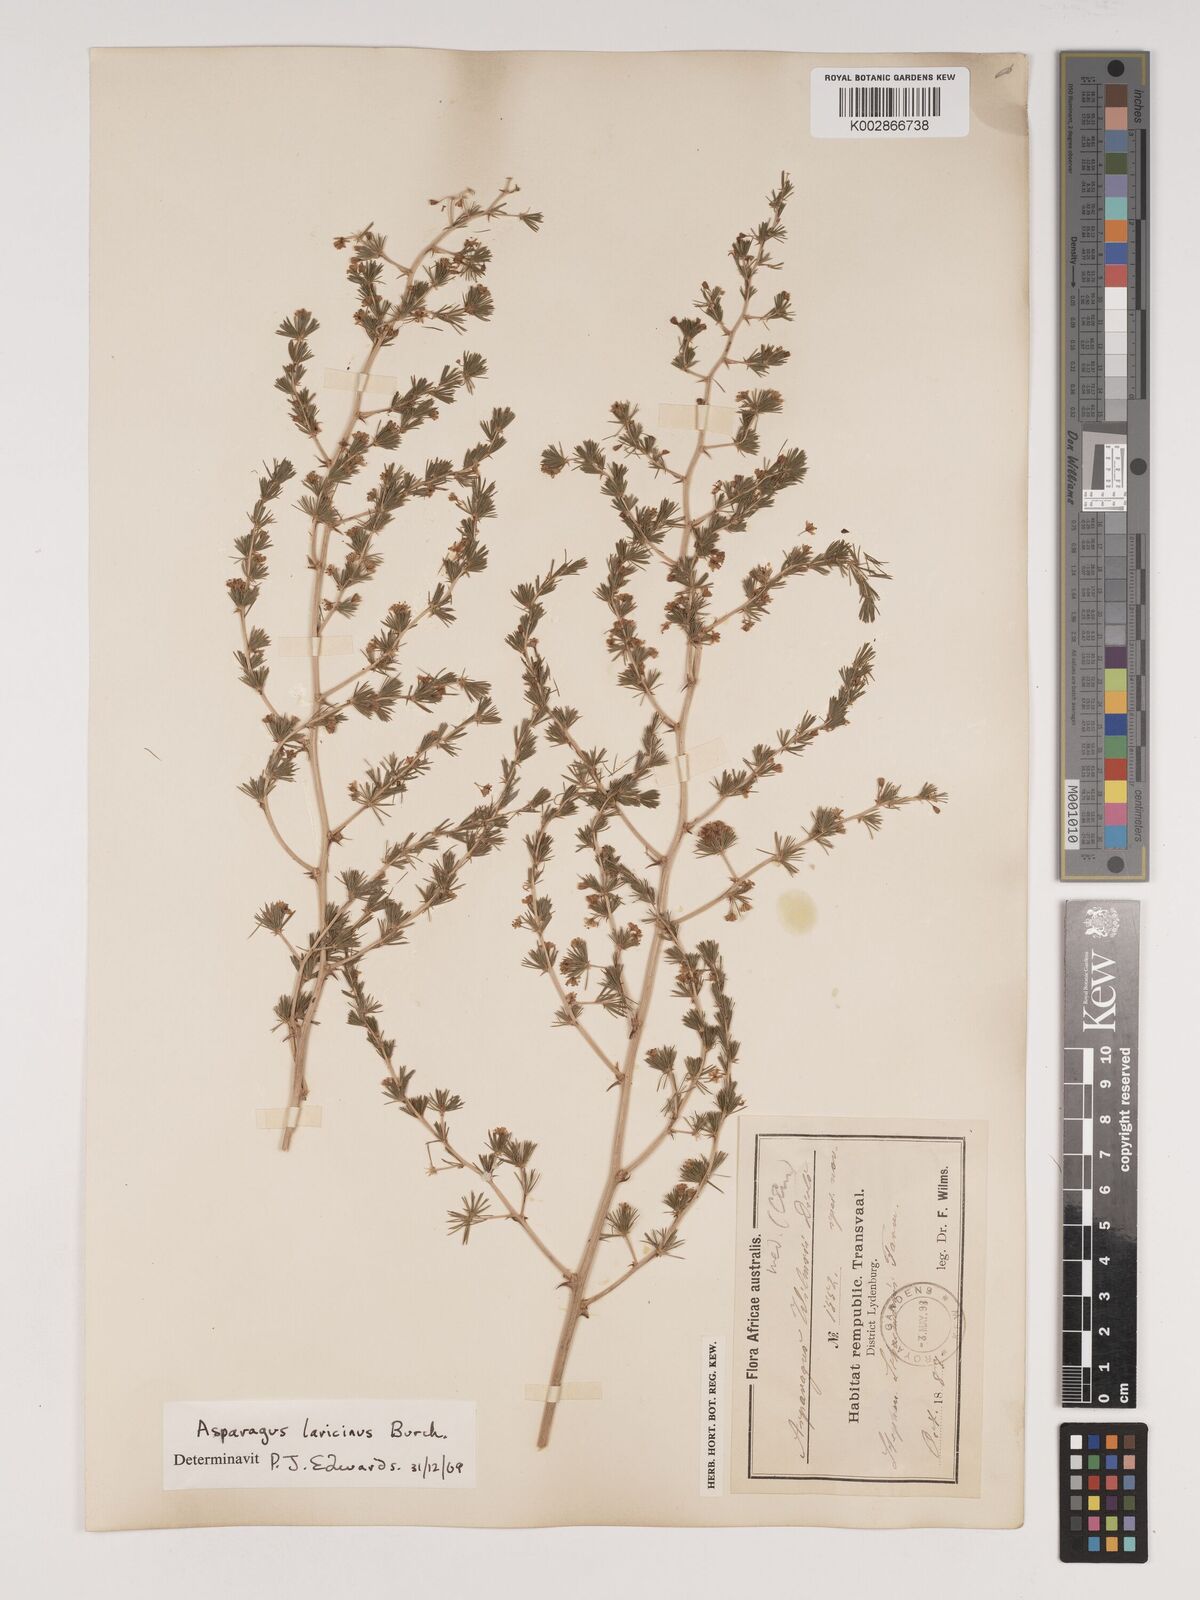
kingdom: Plantae
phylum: Tracheophyta
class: Liliopsida
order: Asparagales
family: Asparagaceae
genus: Asparagus
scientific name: Asparagus laricinus
